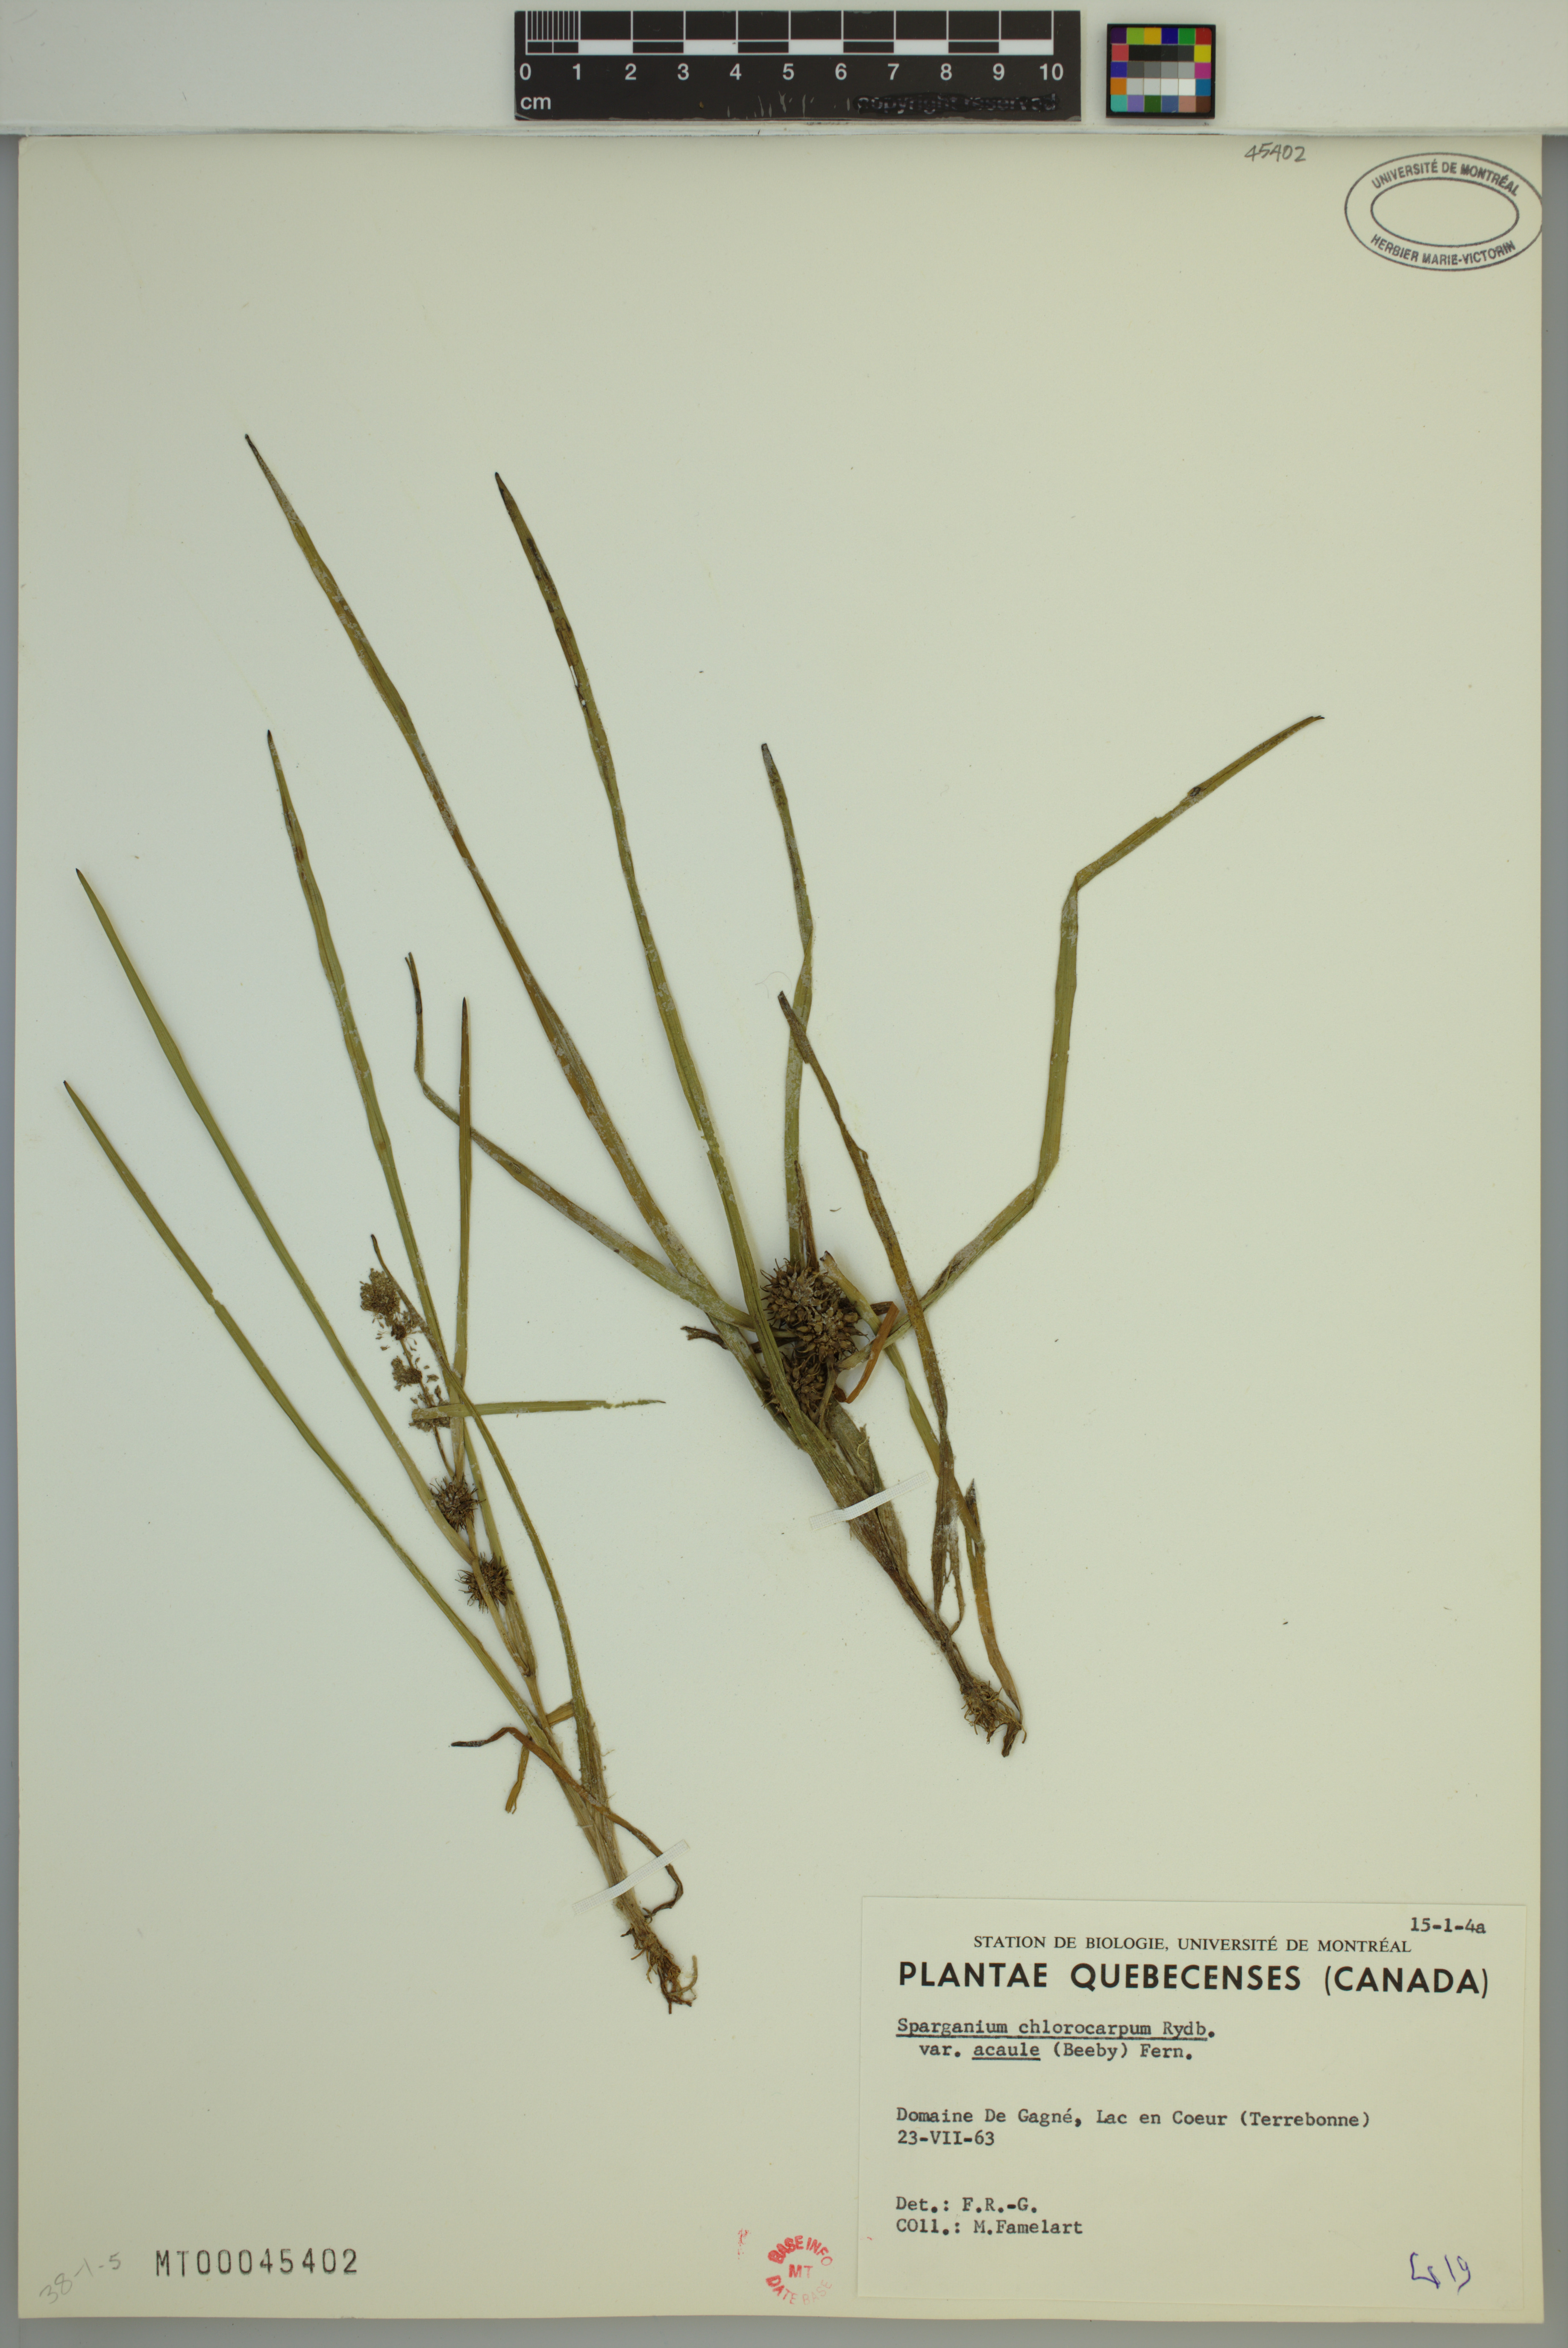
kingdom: Plantae
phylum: Tracheophyta
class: Liliopsida
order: Poales
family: Typhaceae
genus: Sparganium
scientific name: Sparganium emersum
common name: Unbranched bur-reed
